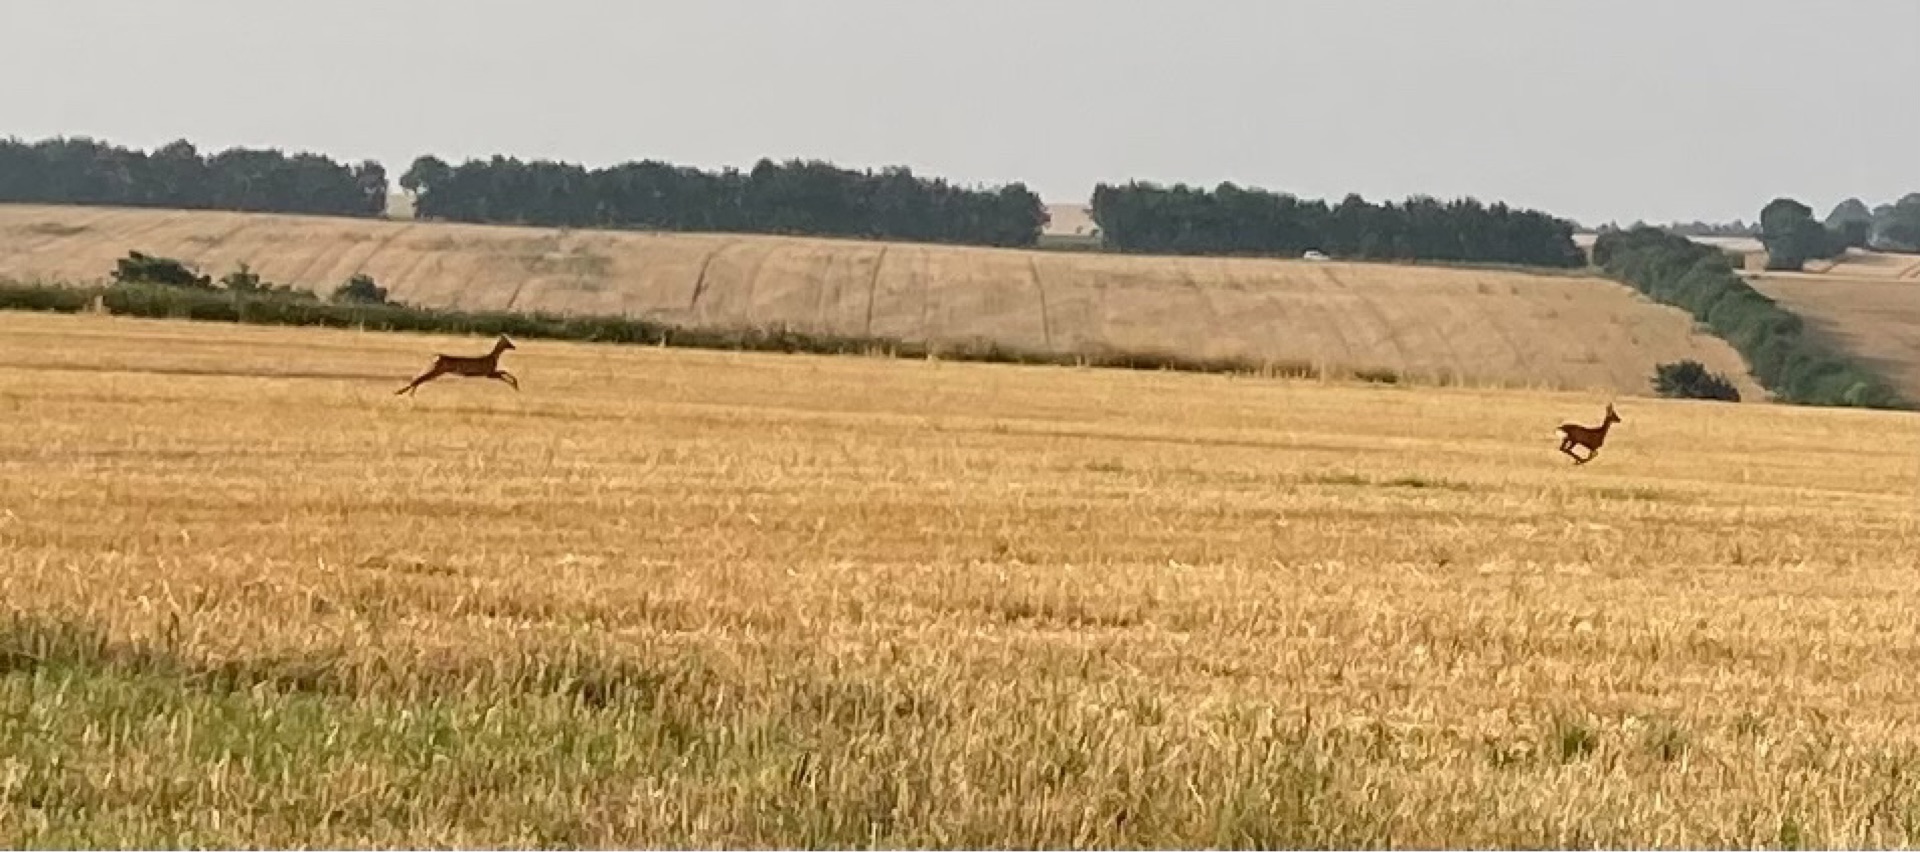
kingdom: Animalia
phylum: Chordata
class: Mammalia
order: Artiodactyla
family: Cervidae
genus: Capreolus
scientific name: Capreolus capreolus
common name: Rådyr
